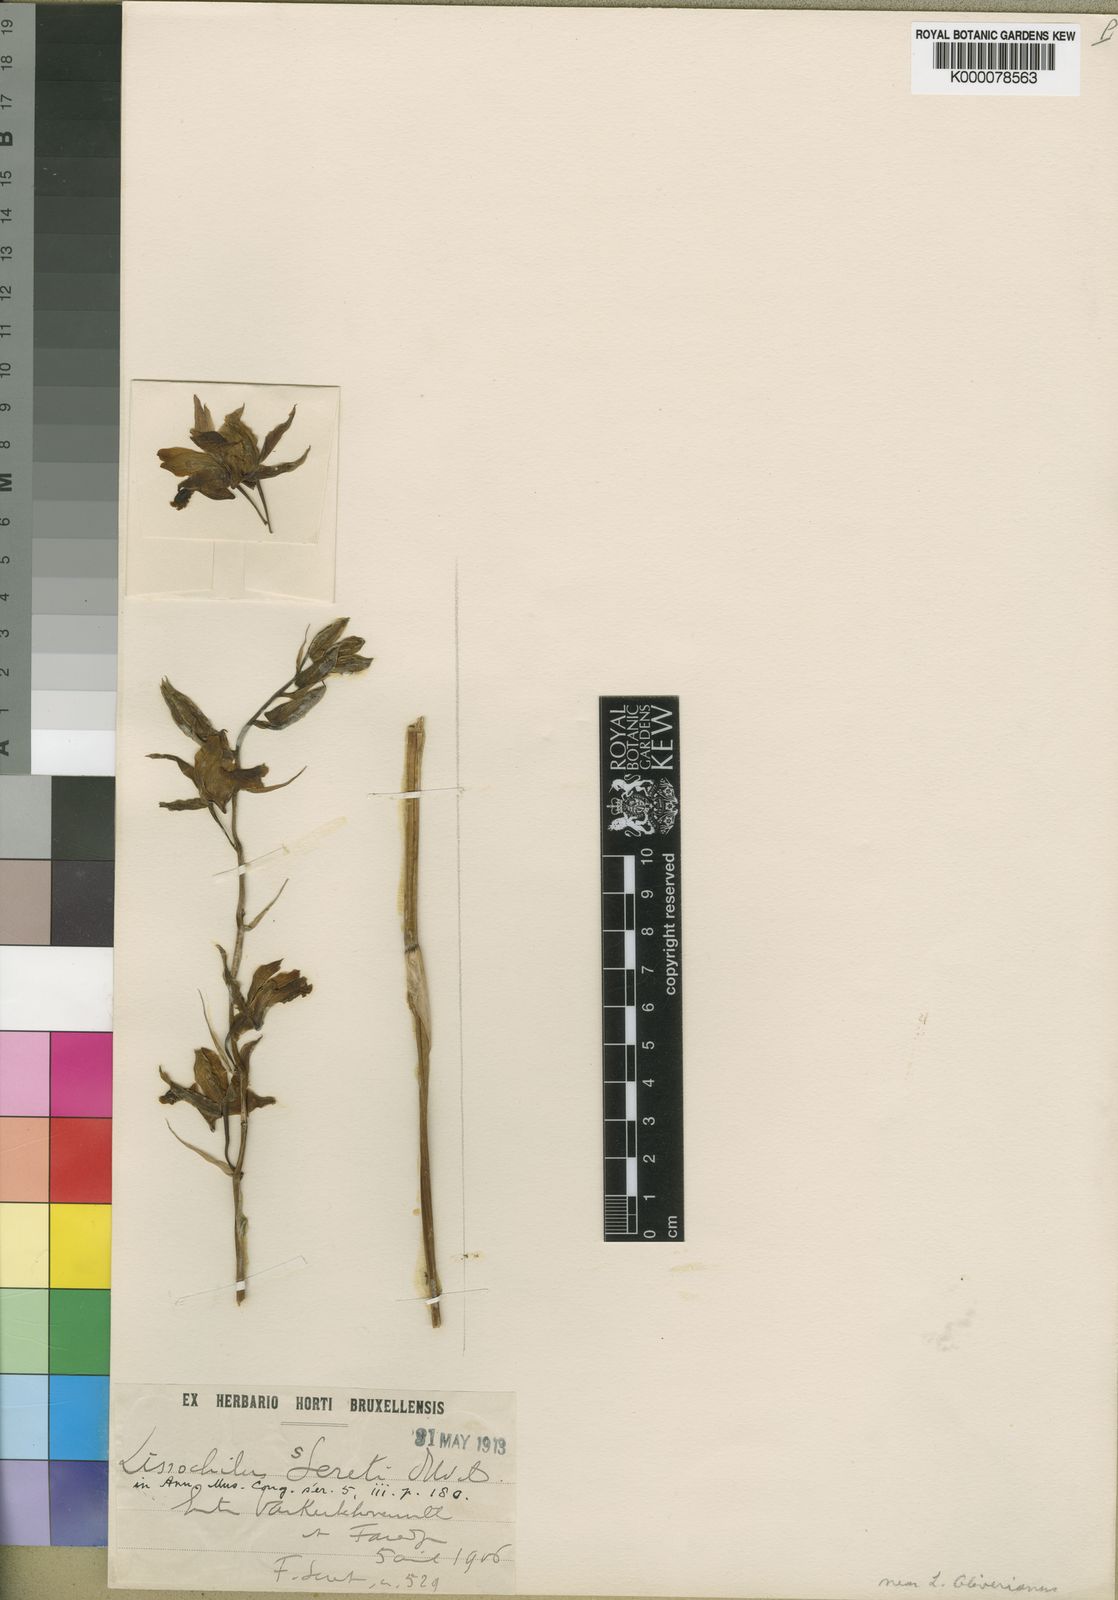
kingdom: Plantae
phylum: Tracheophyta
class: Liliopsida
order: Asparagales
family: Orchidaceae
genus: Eulophia
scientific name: Eulophia flavopurpurea
